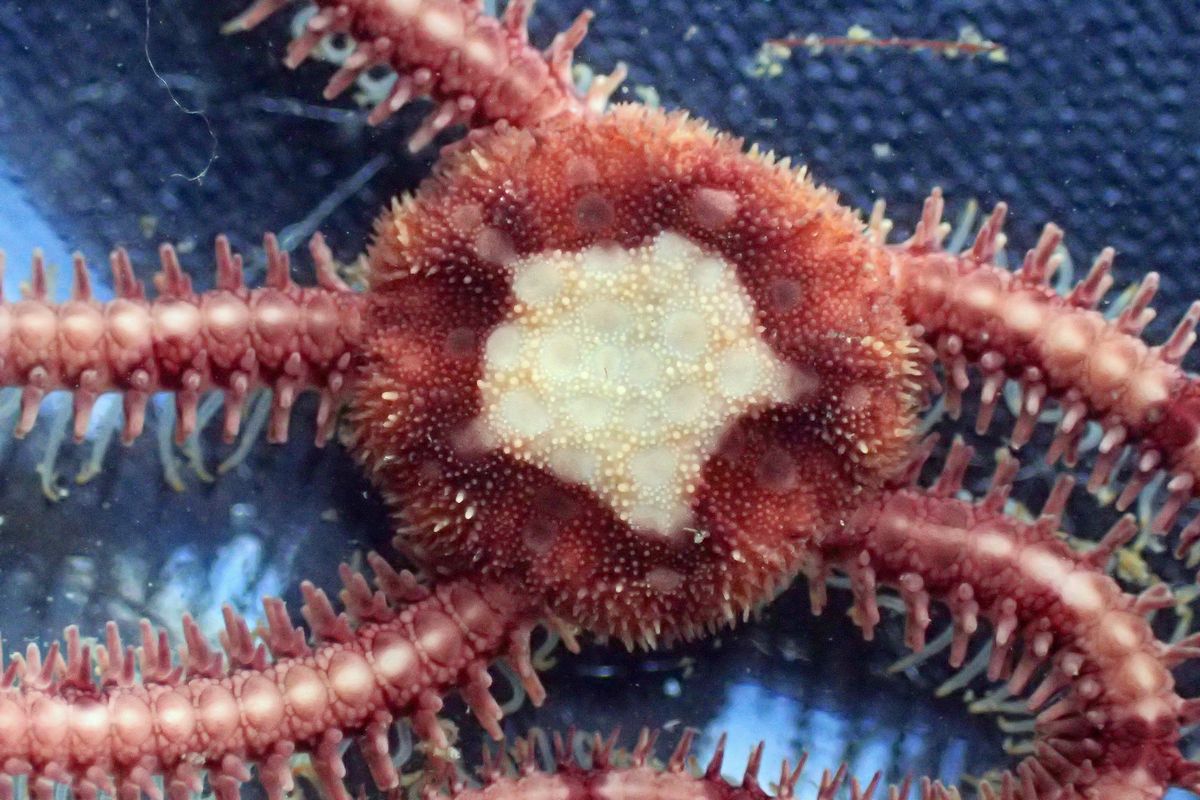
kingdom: Animalia
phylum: Echinodermata
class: Ophiuroidea
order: Amphilepidida
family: Ophiopholidae
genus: Ophiopholis
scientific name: Ophiopholis aculeata
